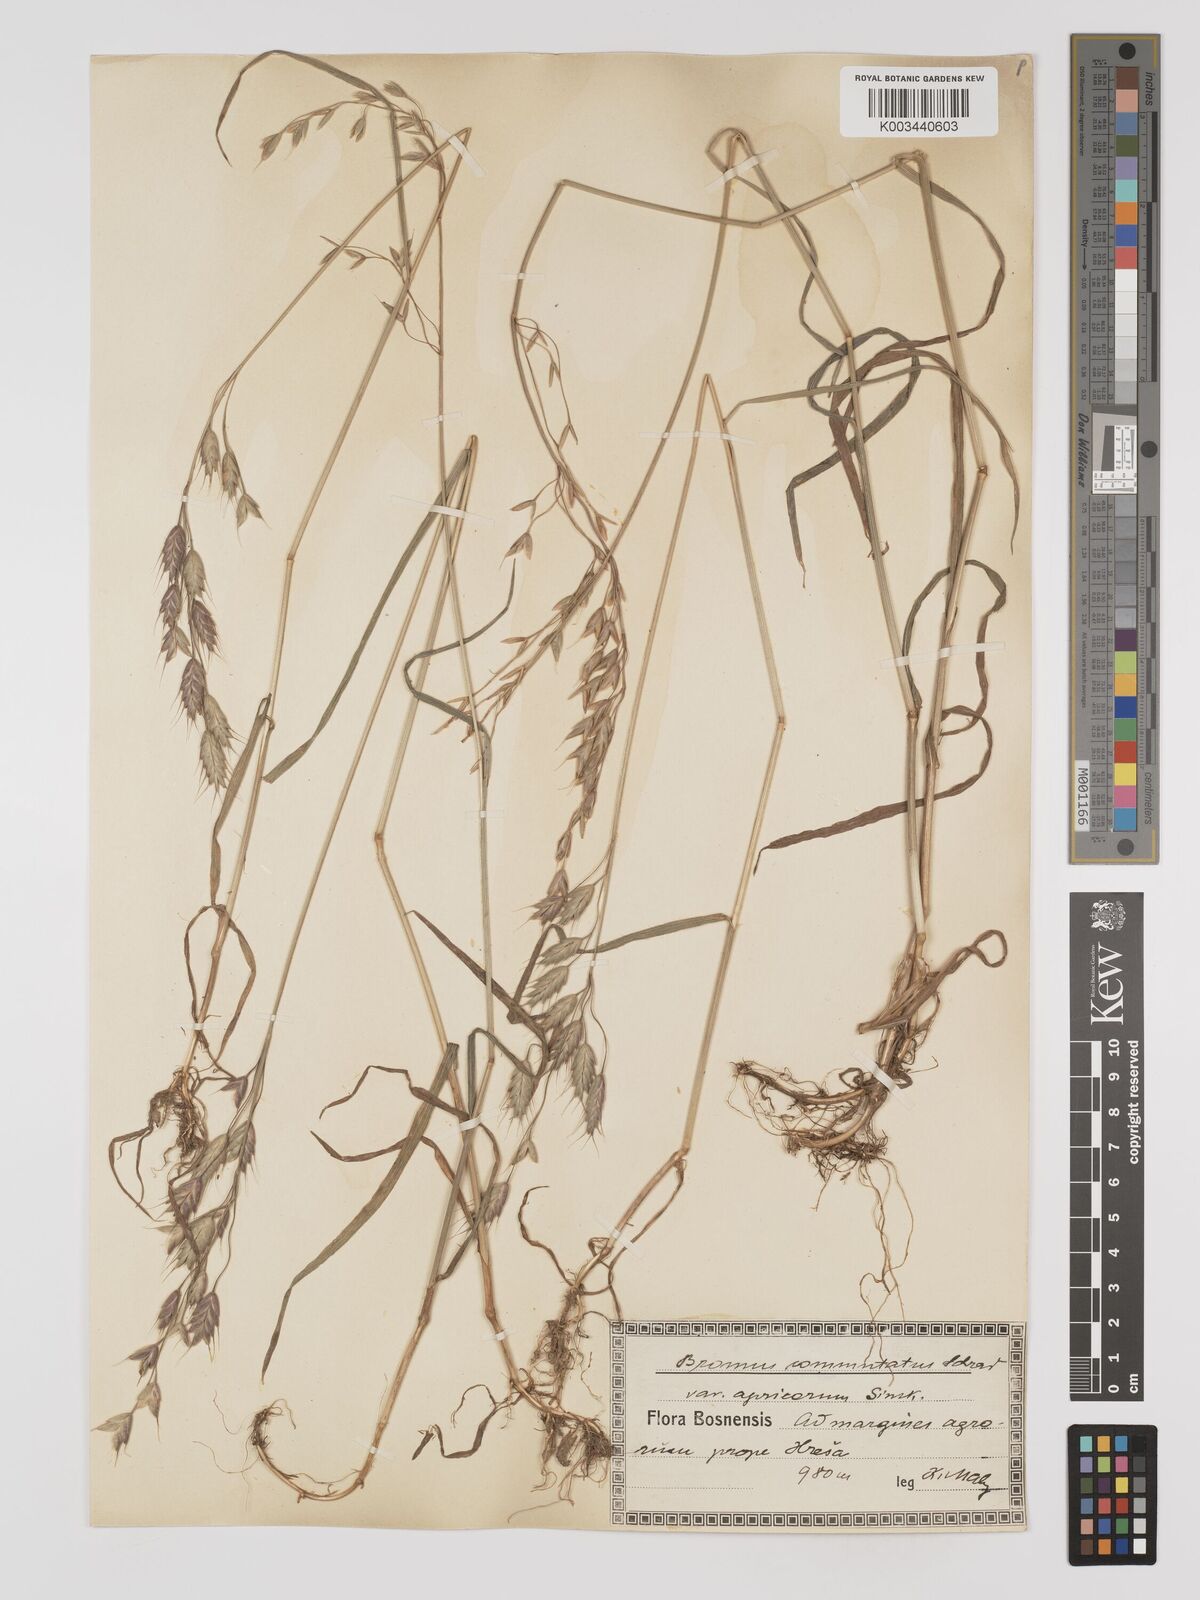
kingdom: Plantae
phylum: Tracheophyta
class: Liliopsida
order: Poales
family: Poaceae
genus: Bromus
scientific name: Bromus racemosus
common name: Bald brome
